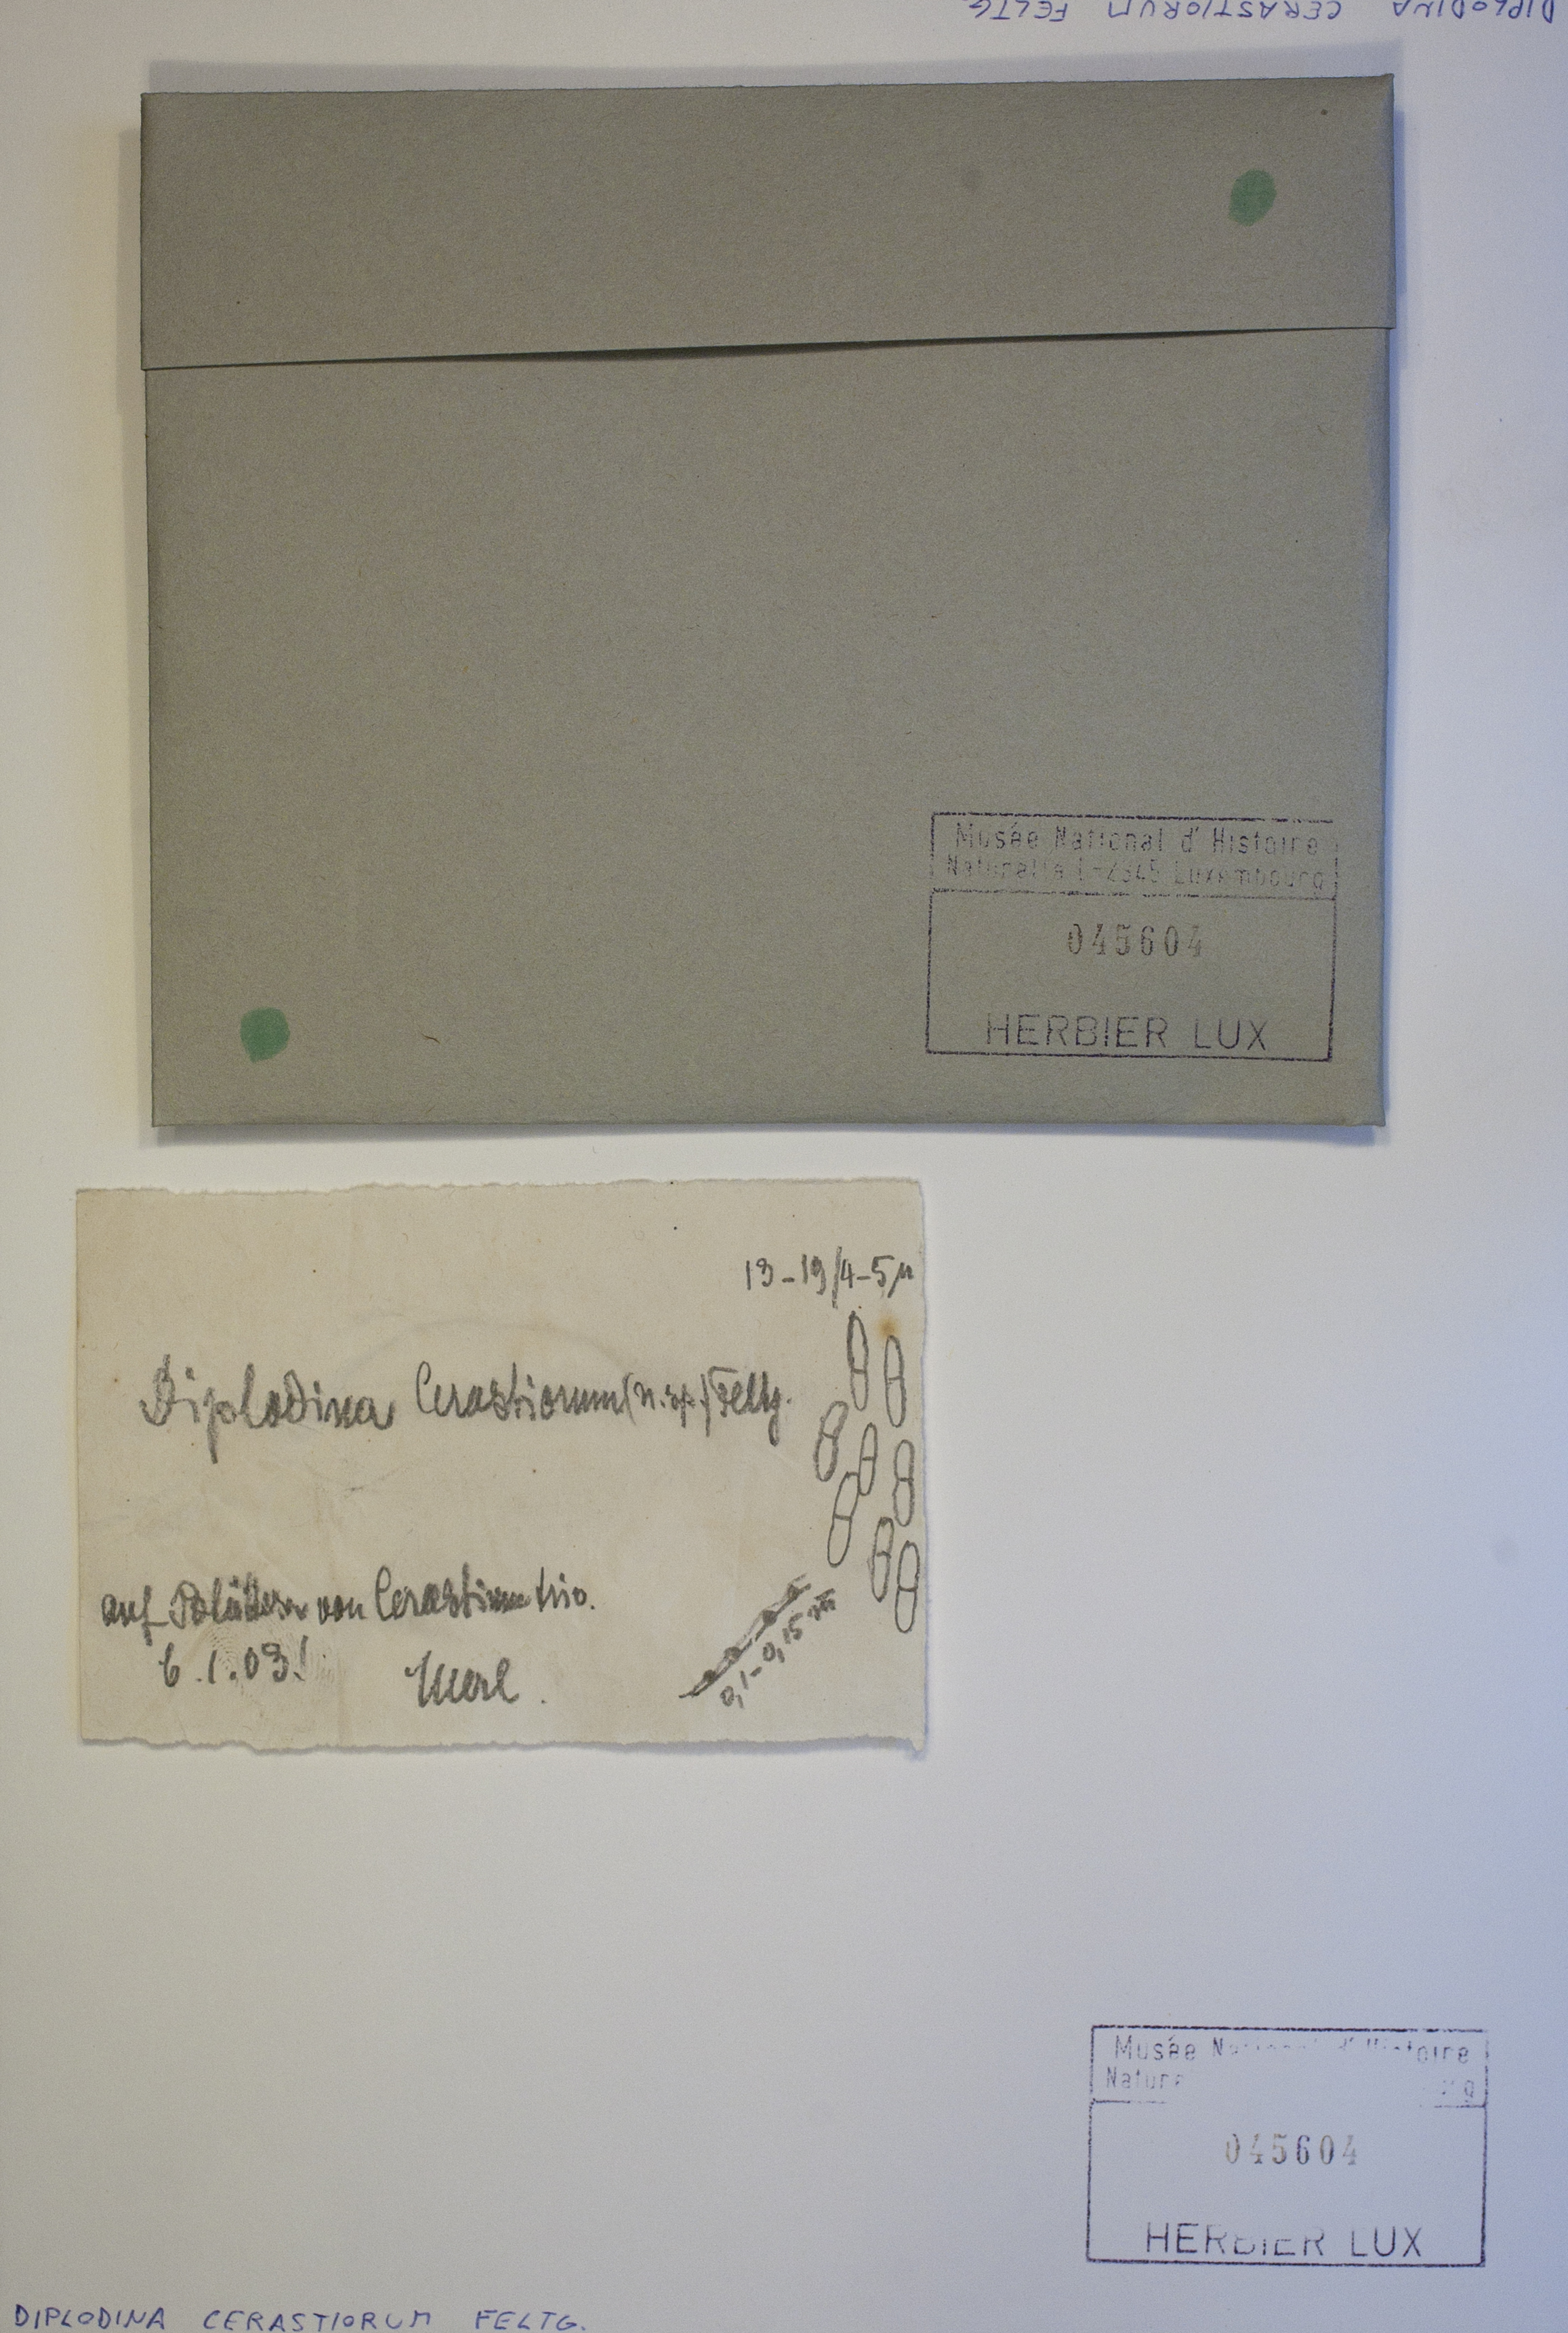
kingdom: Fungi
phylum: Ascomycota
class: Sordariomycetes
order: Diaporthales
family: Gnomoniaceae
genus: Diplodina
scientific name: Diplodina
